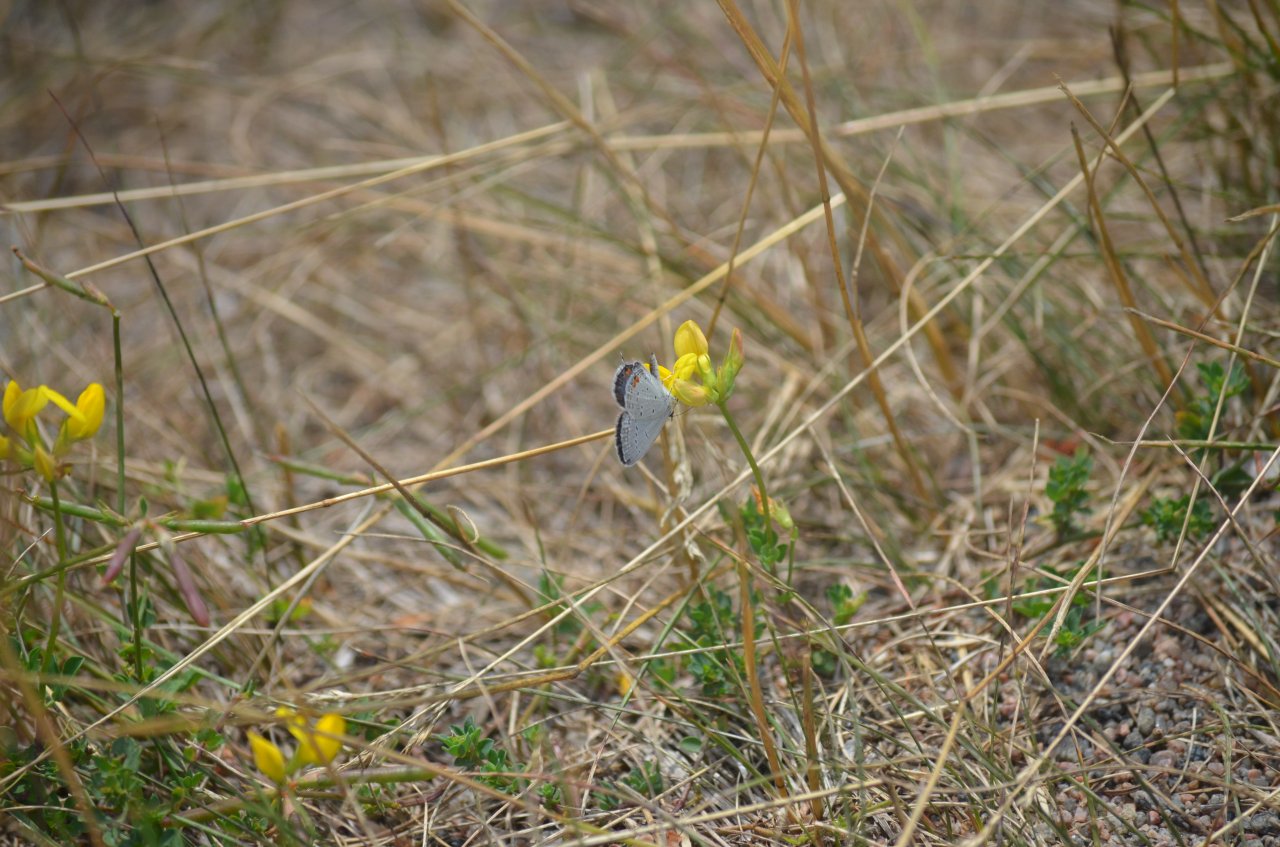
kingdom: Animalia
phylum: Arthropoda
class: Insecta
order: Lepidoptera
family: Lycaenidae
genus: Elkalyce
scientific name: Elkalyce comyntas
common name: Eastern Tailed-Blue
